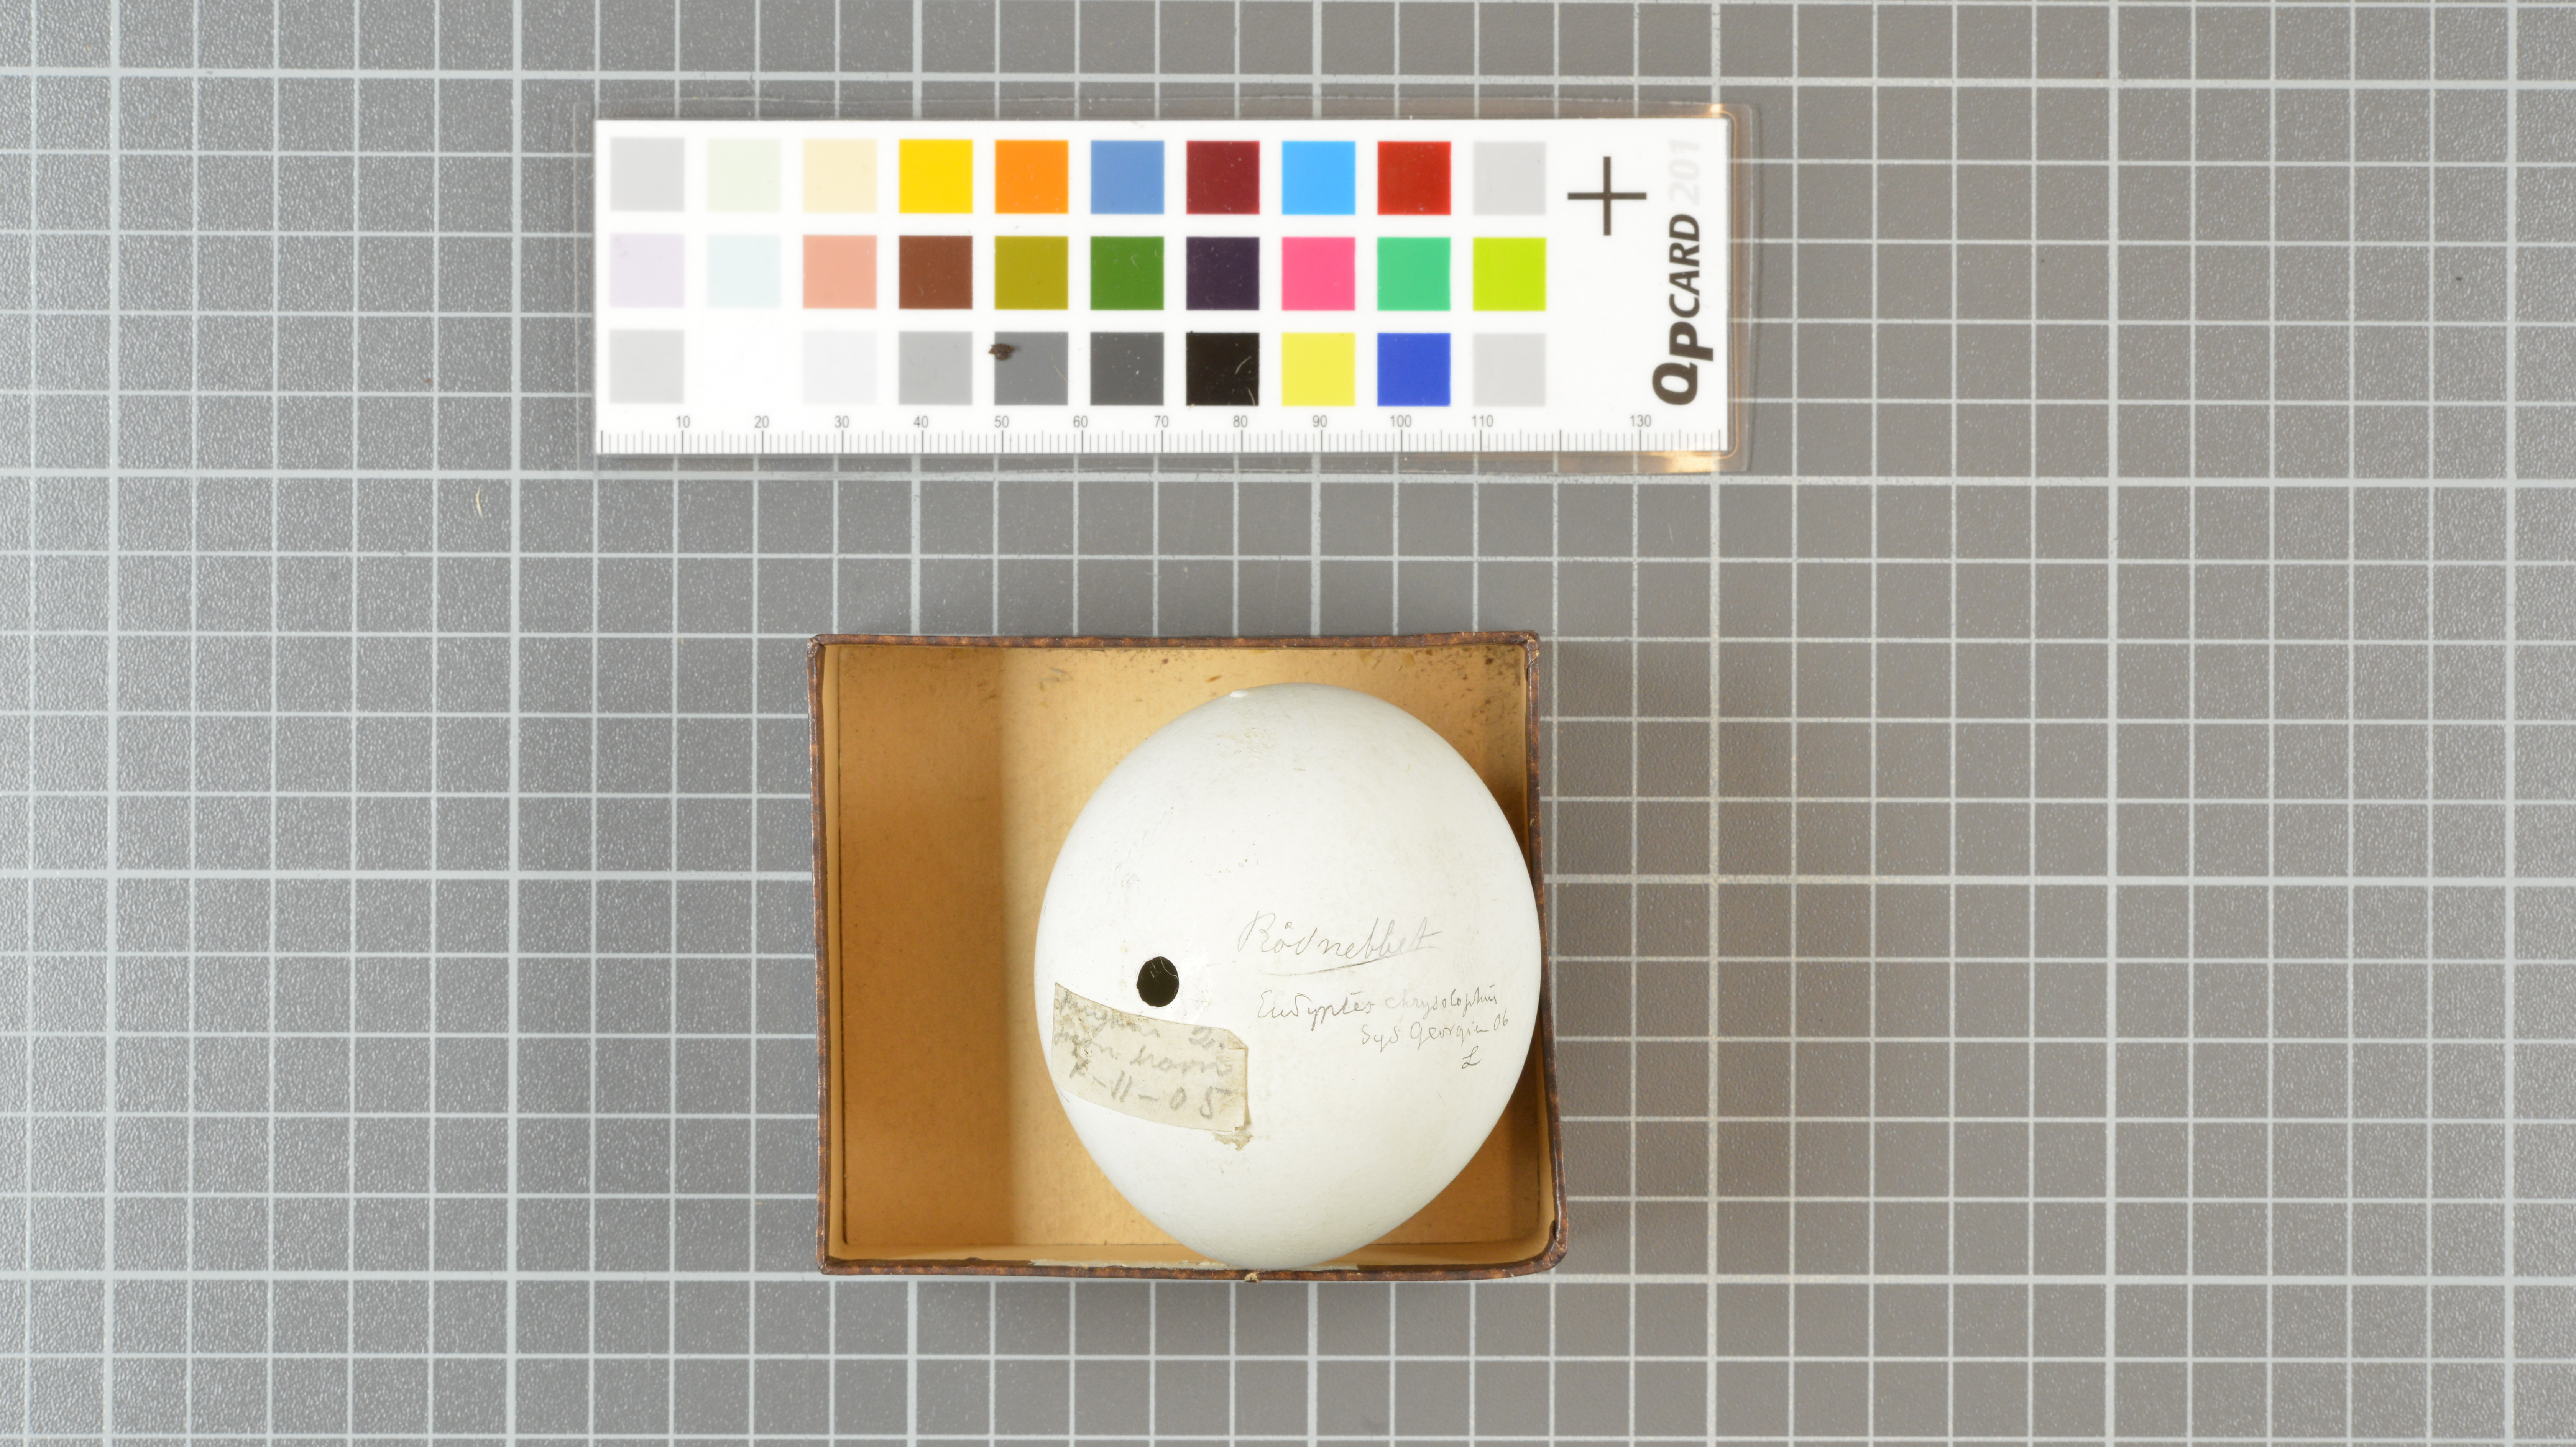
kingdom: Animalia
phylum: Chordata
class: Aves
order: Sphenisciformes
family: Spheniscidae
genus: Eudyptes
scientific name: Eudyptes chrysolophus
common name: Macaroni penguin
